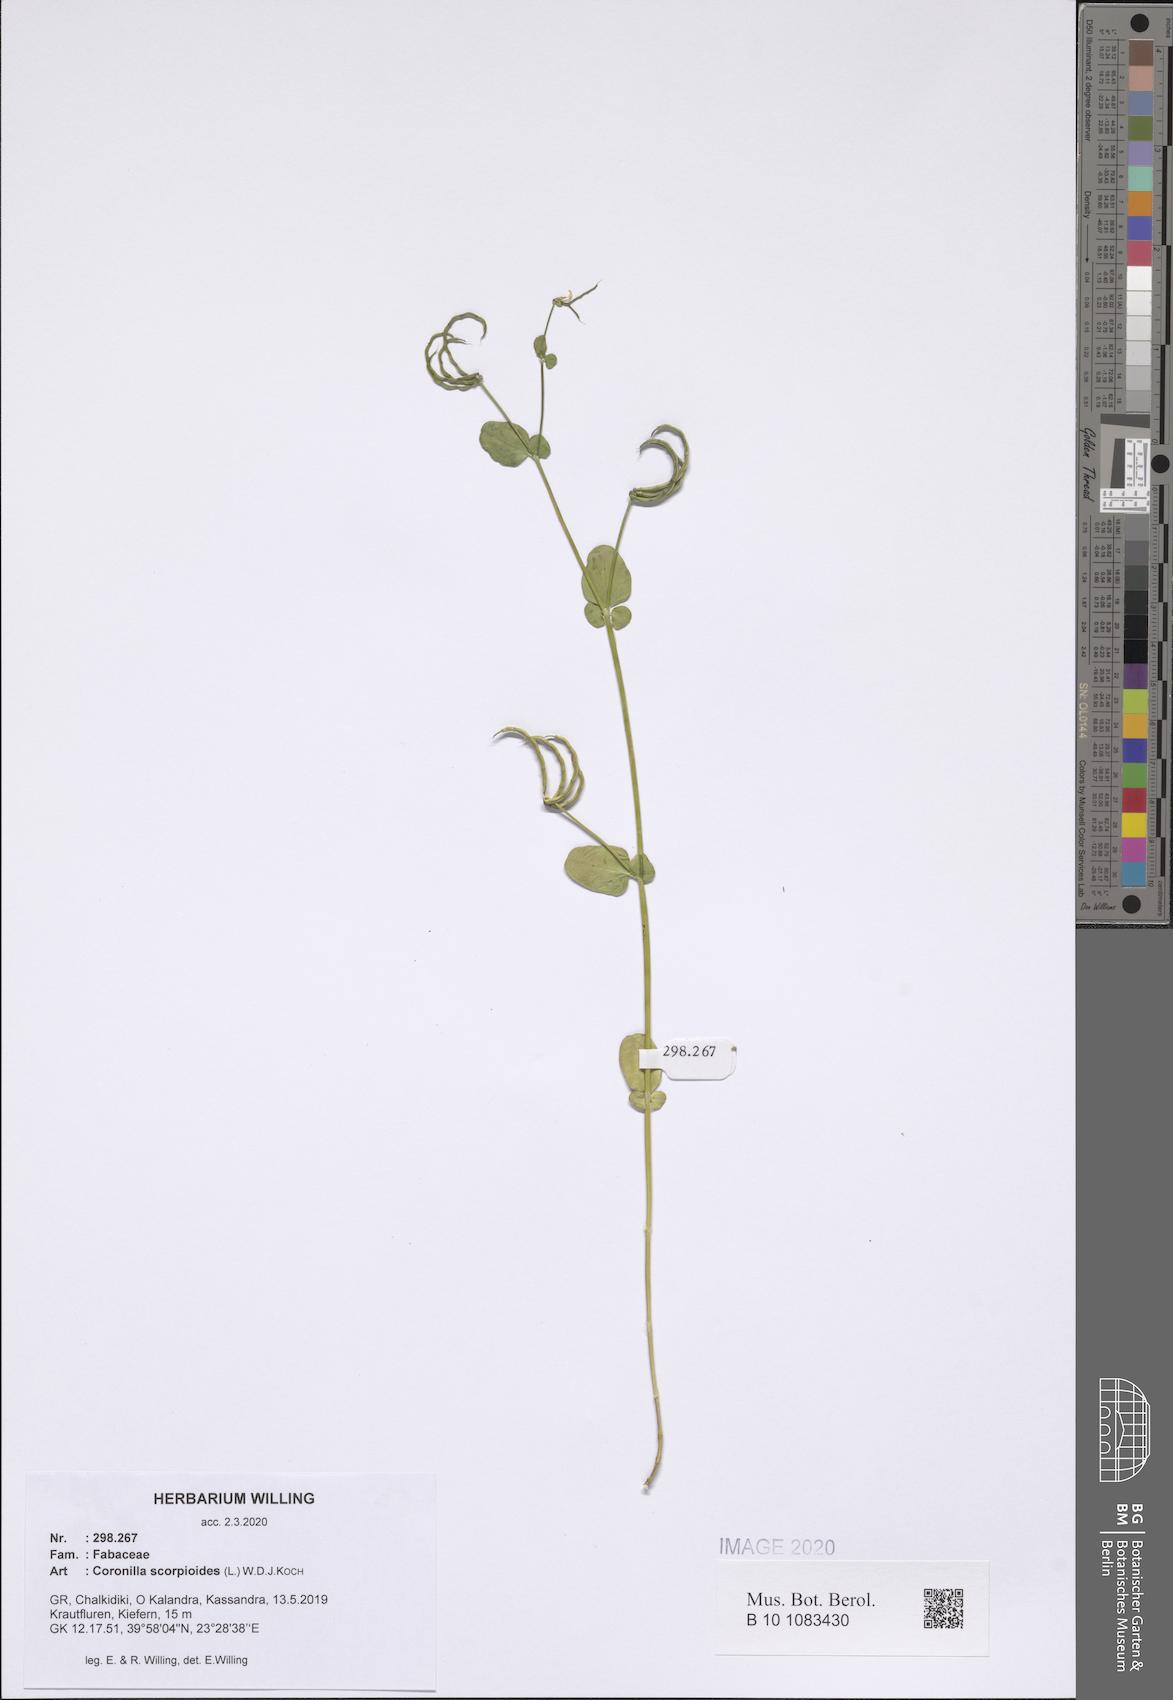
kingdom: Plantae
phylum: Tracheophyta
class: Magnoliopsida
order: Fabales
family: Fabaceae
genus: Coronilla
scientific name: Coronilla scorpioides
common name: Annual scorpion-vetch
